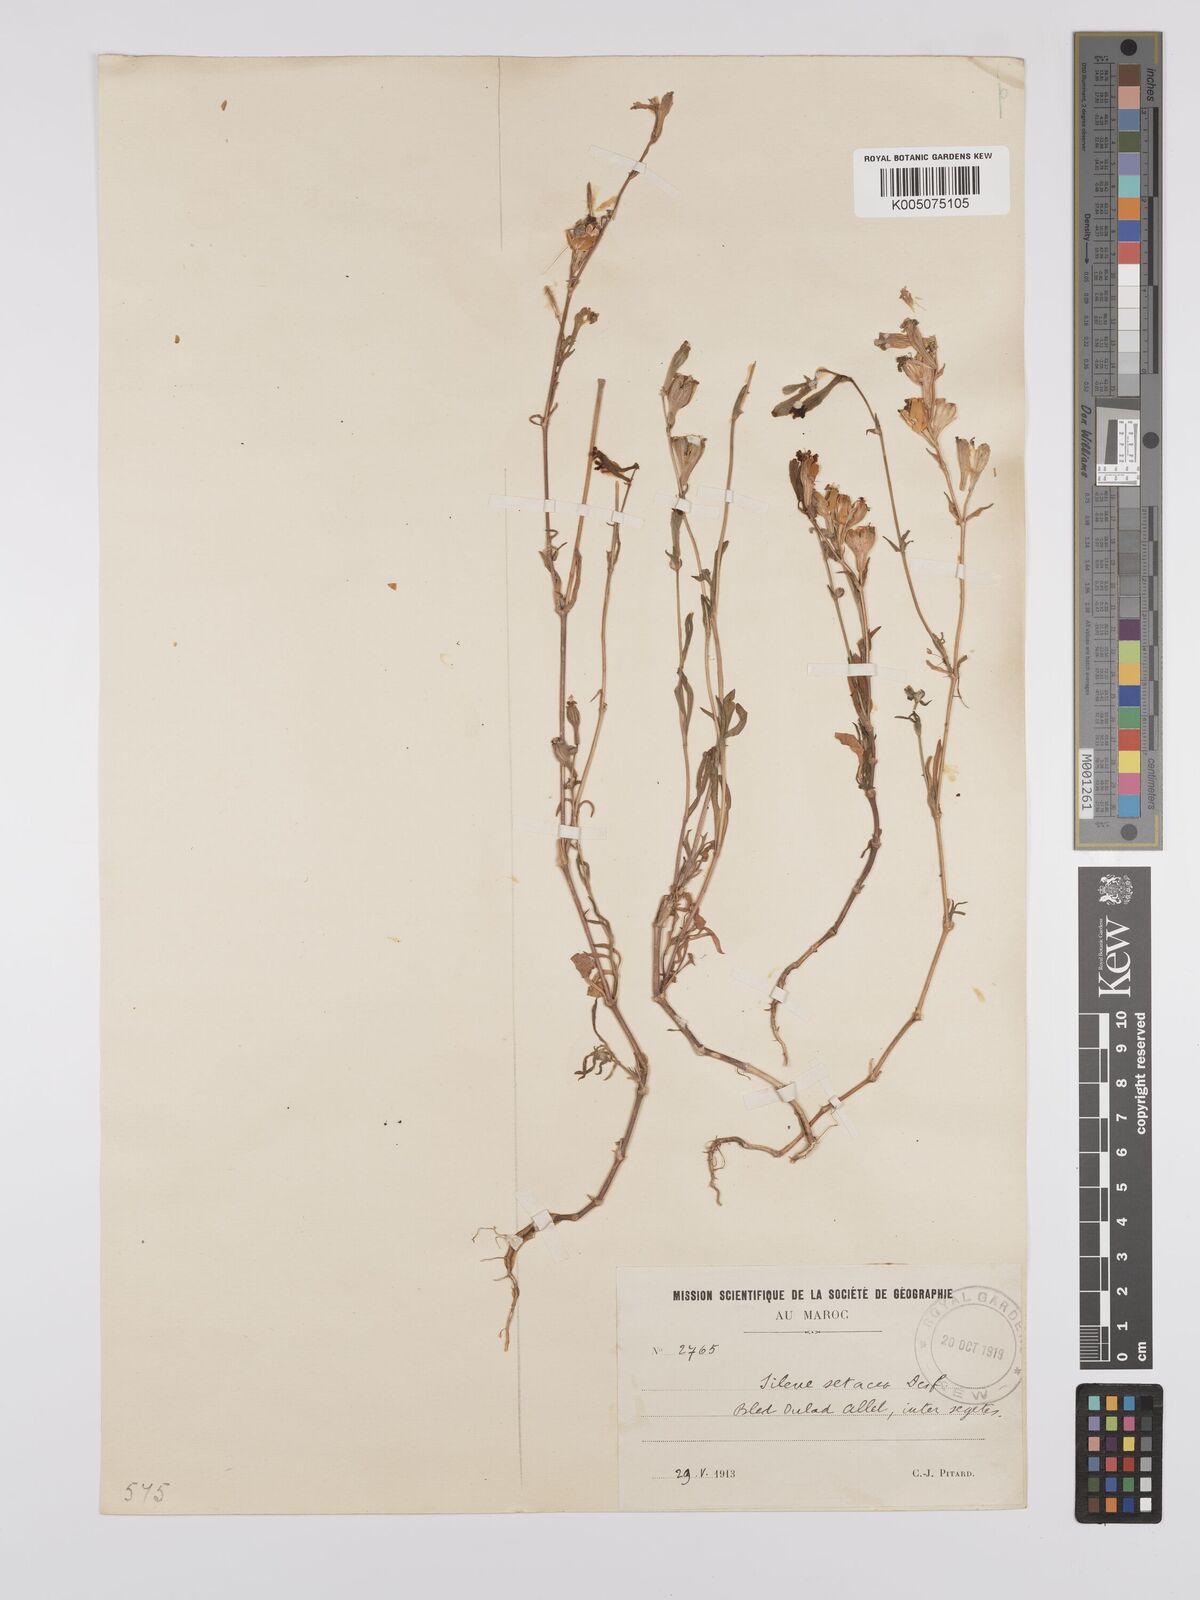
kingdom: Plantae
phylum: Tracheophyta
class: Magnoliopsida
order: Caryophyllales
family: Caryophyllaceae
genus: Silene
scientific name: Silene nicaeensis
